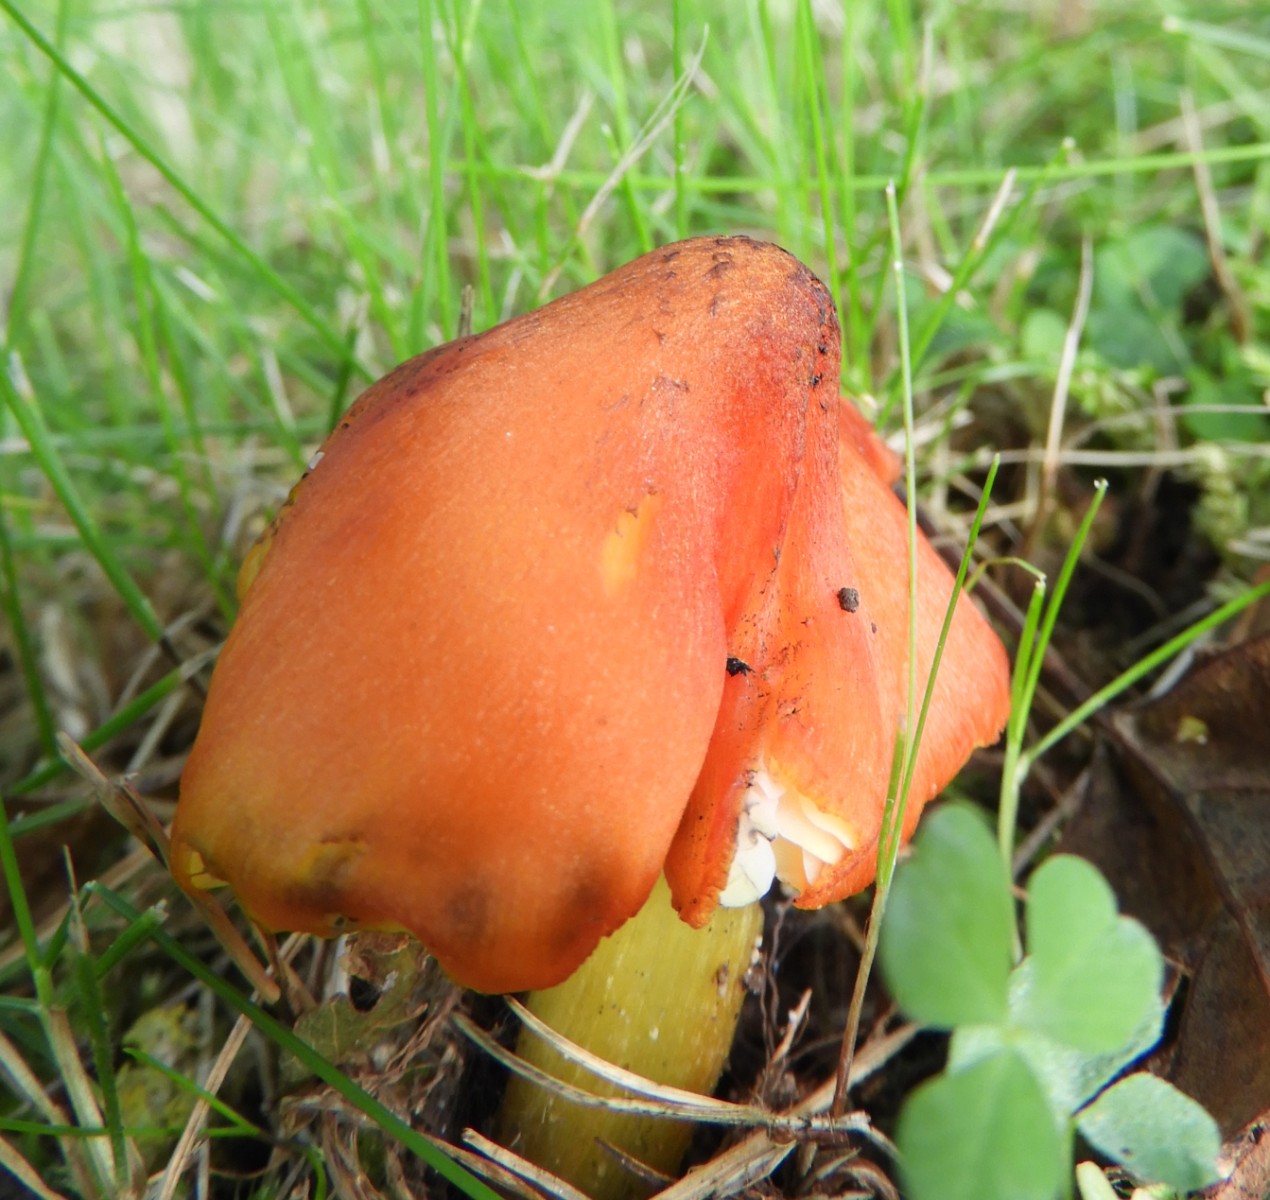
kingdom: Fungi
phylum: Basidiomycota
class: Agaricomycetes
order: Agaricales
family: Hygrophoraceae
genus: Hygrocybe
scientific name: Hygrocybe conica
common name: kegle-vokshat
